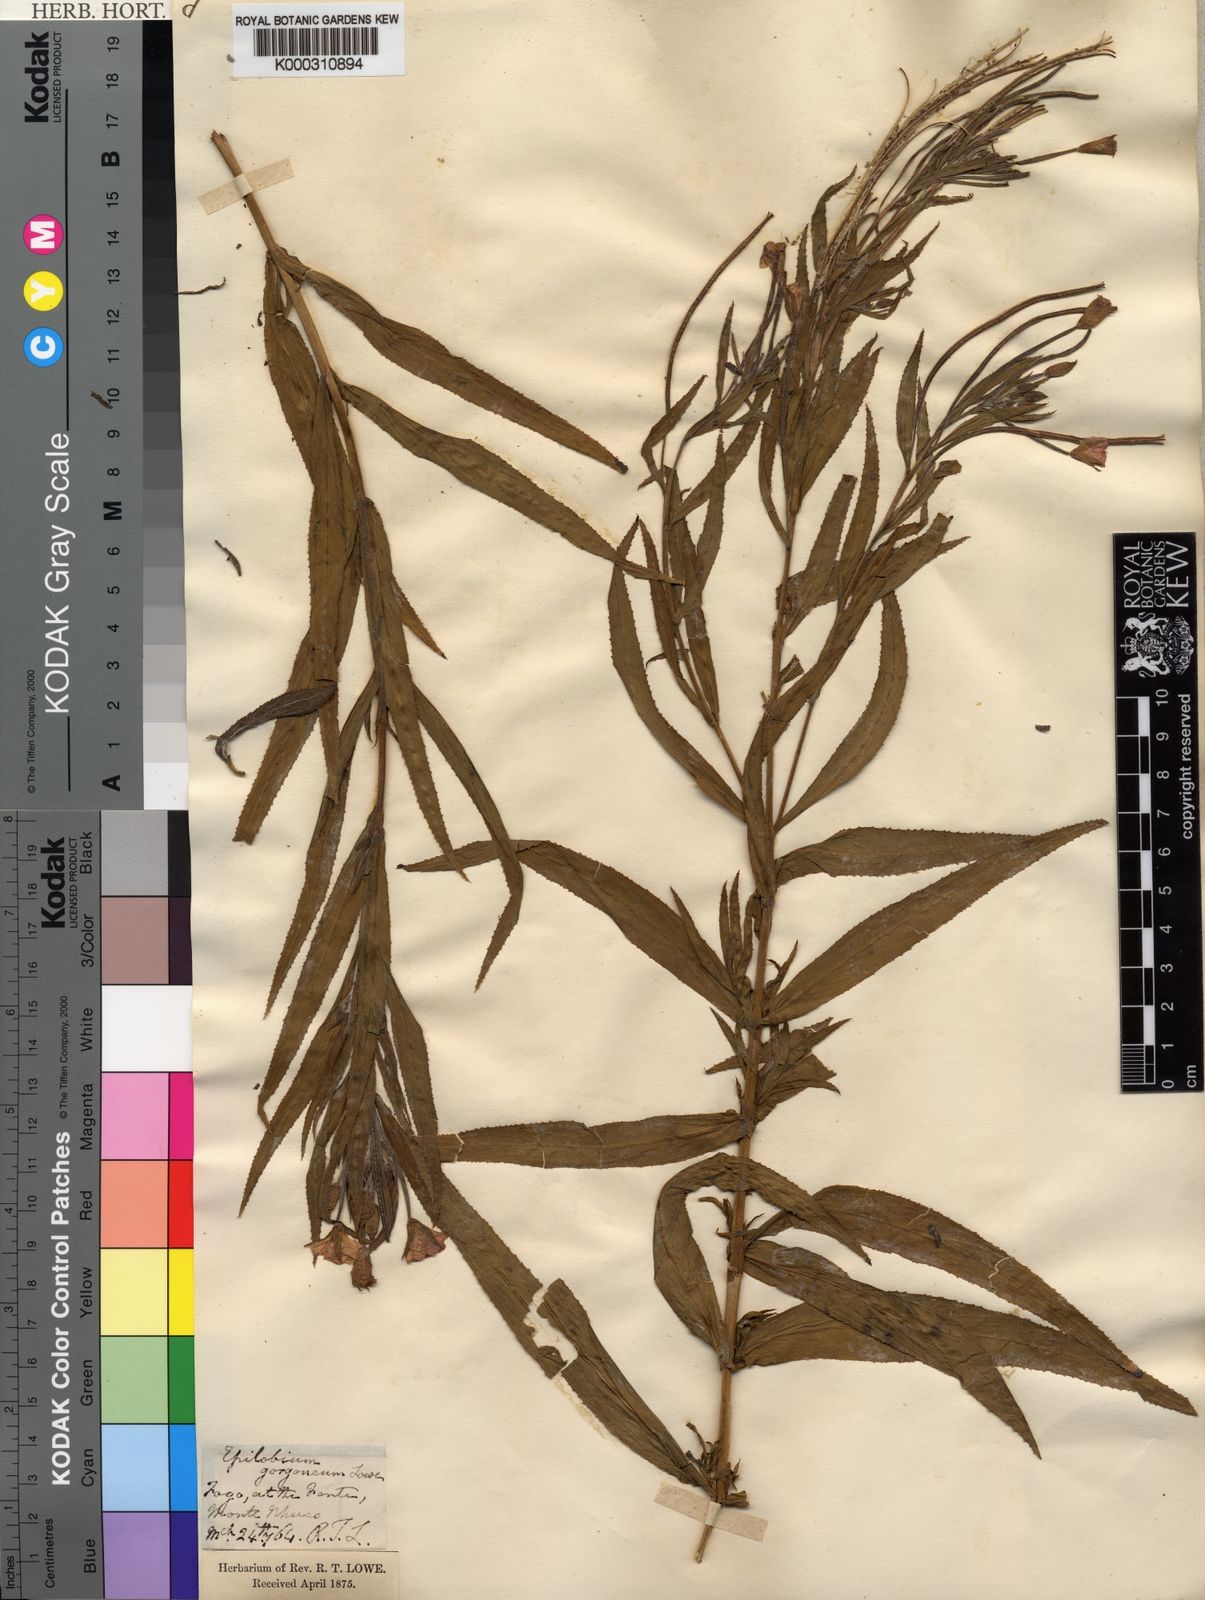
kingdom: Plantae
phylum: Tracheophyta
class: Magnoliopsida
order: Myrtales
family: Onagraceae
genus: Epilobium
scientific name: Epilobium hirsutum
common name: Great willowherb
